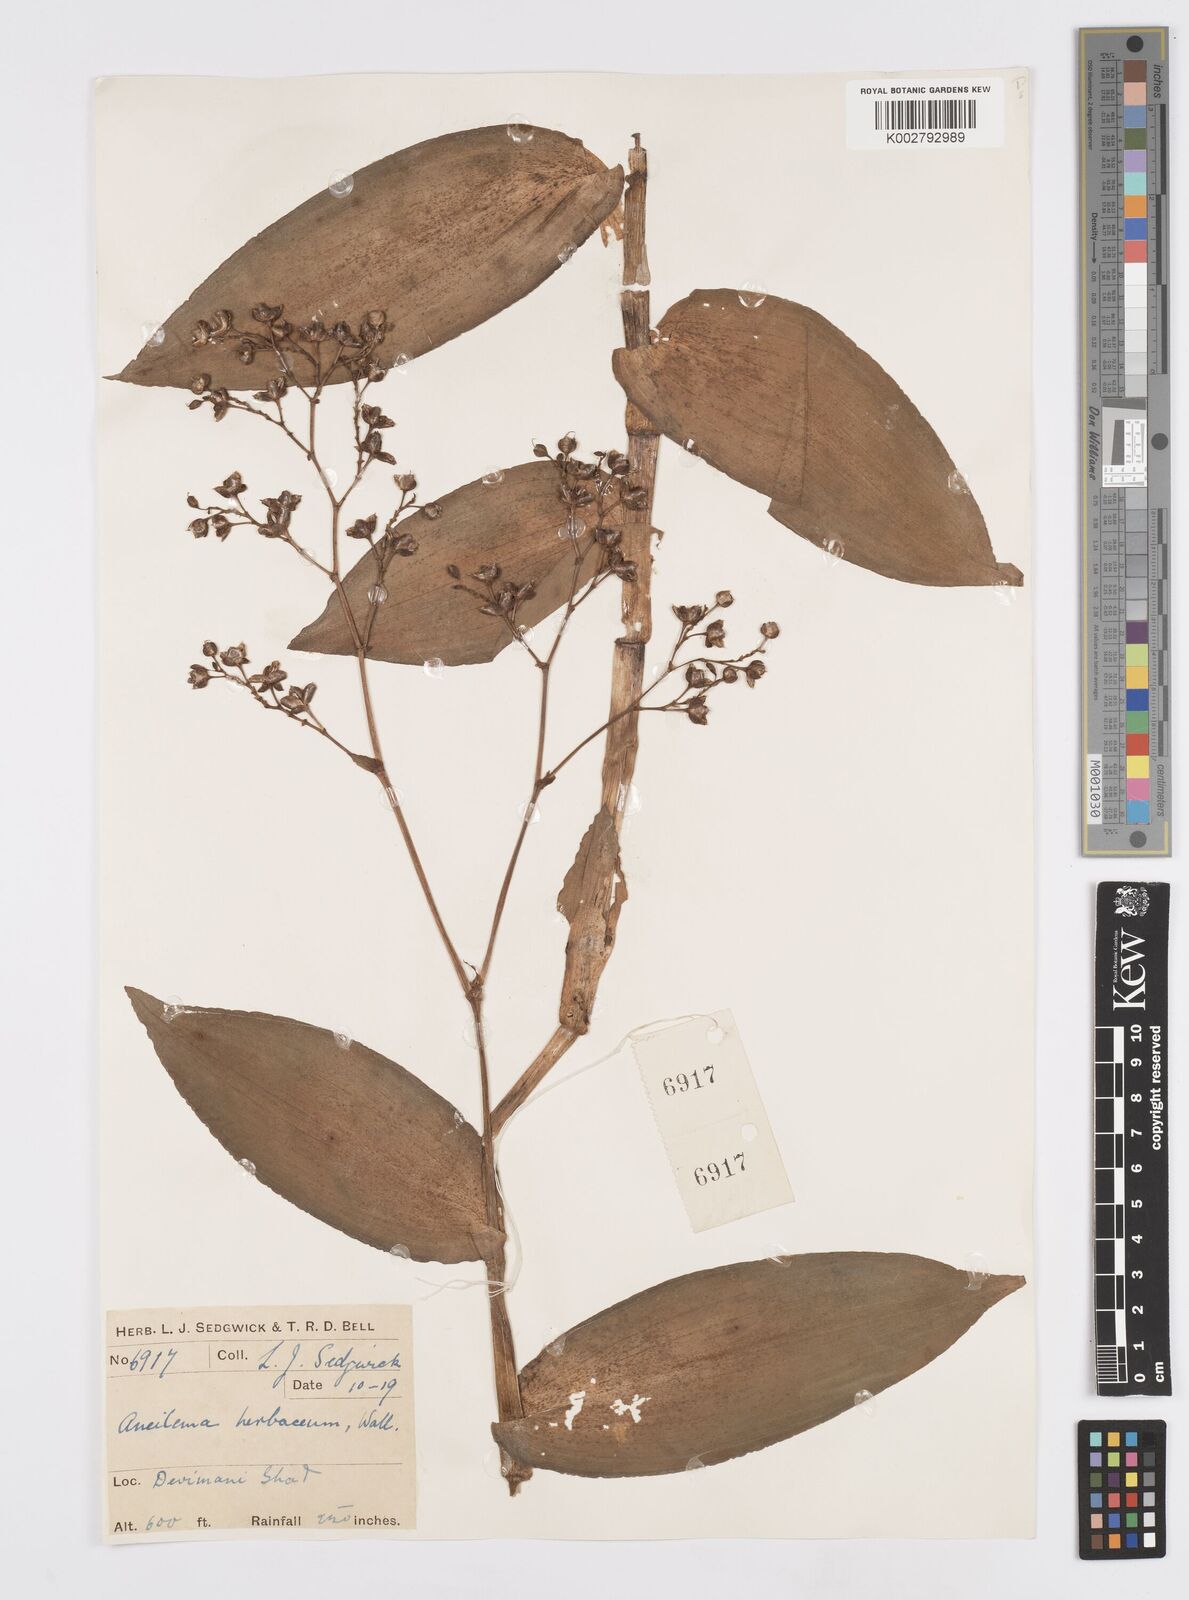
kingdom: Plantae
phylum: Tracheophyta
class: Liliopsida
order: Commelinales
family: Commelinaceae
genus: Murdannia
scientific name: Murdannia
